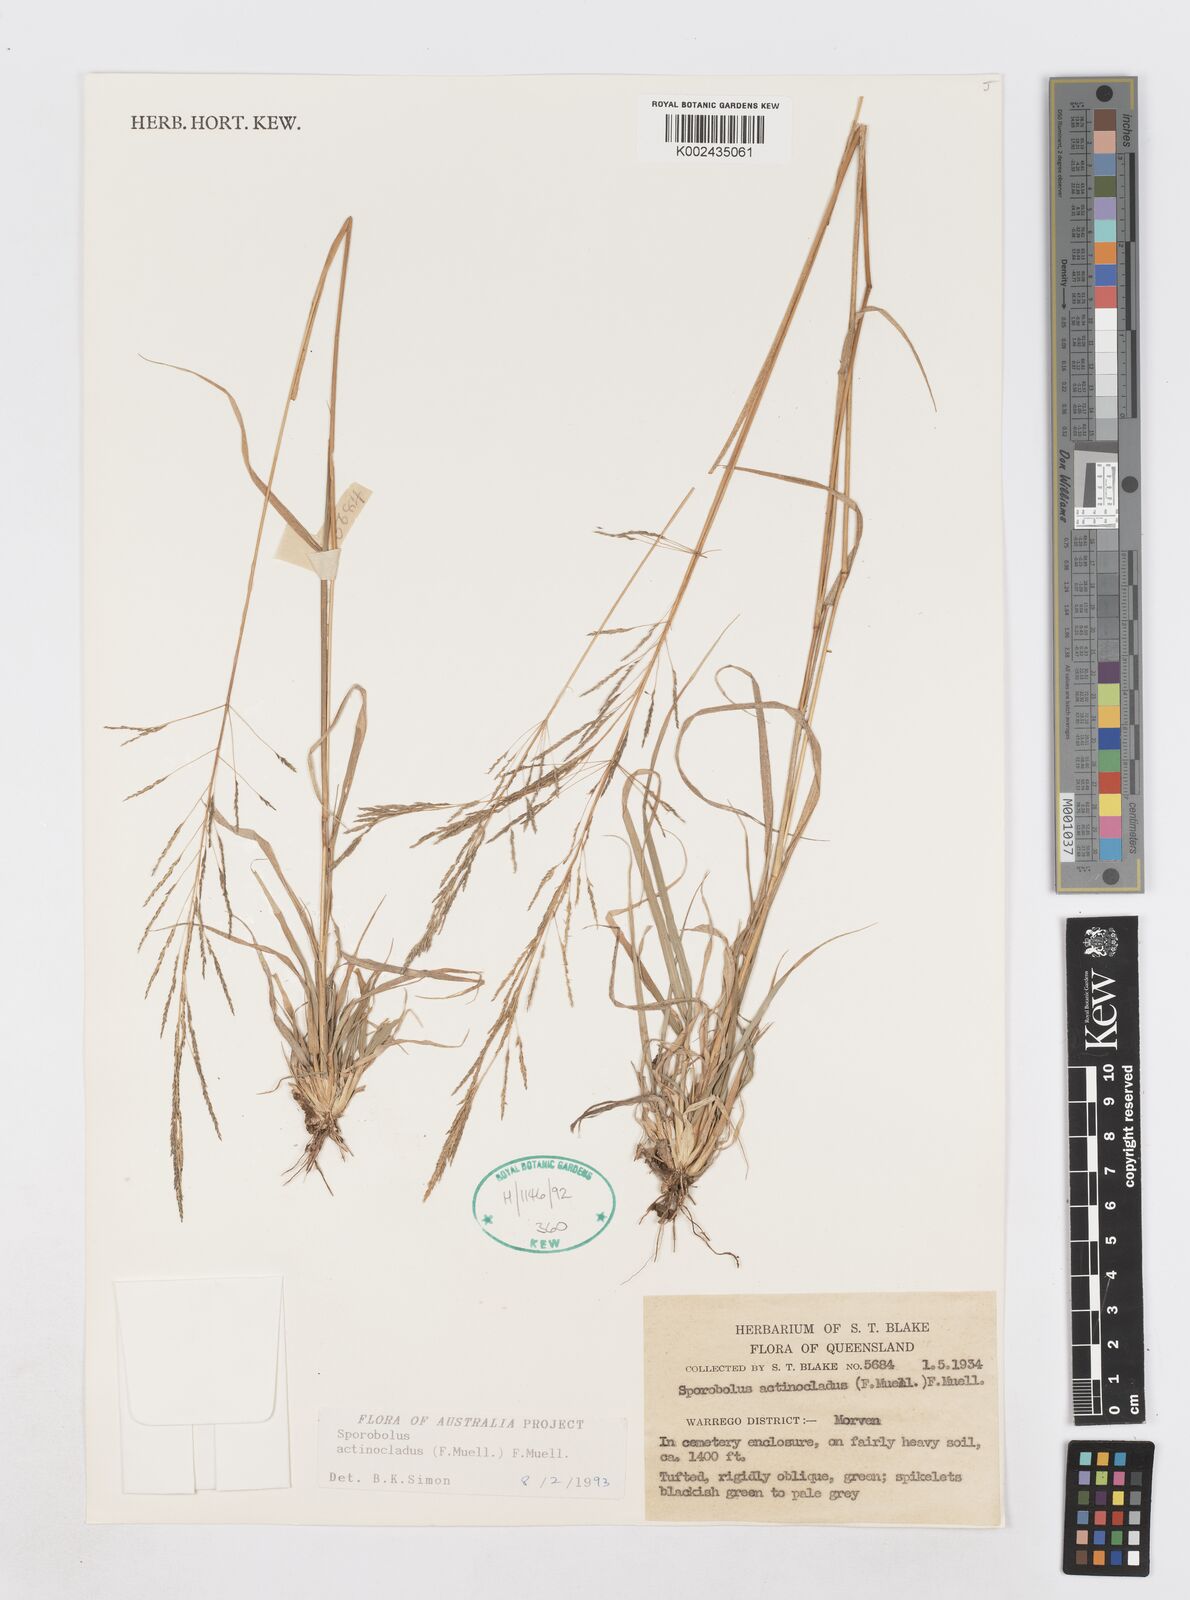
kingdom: Plantae
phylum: Tracheophyta
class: Liliopsida
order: Poales
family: Poaceae
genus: Sporobolus
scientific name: Sporobolus actinocladus
